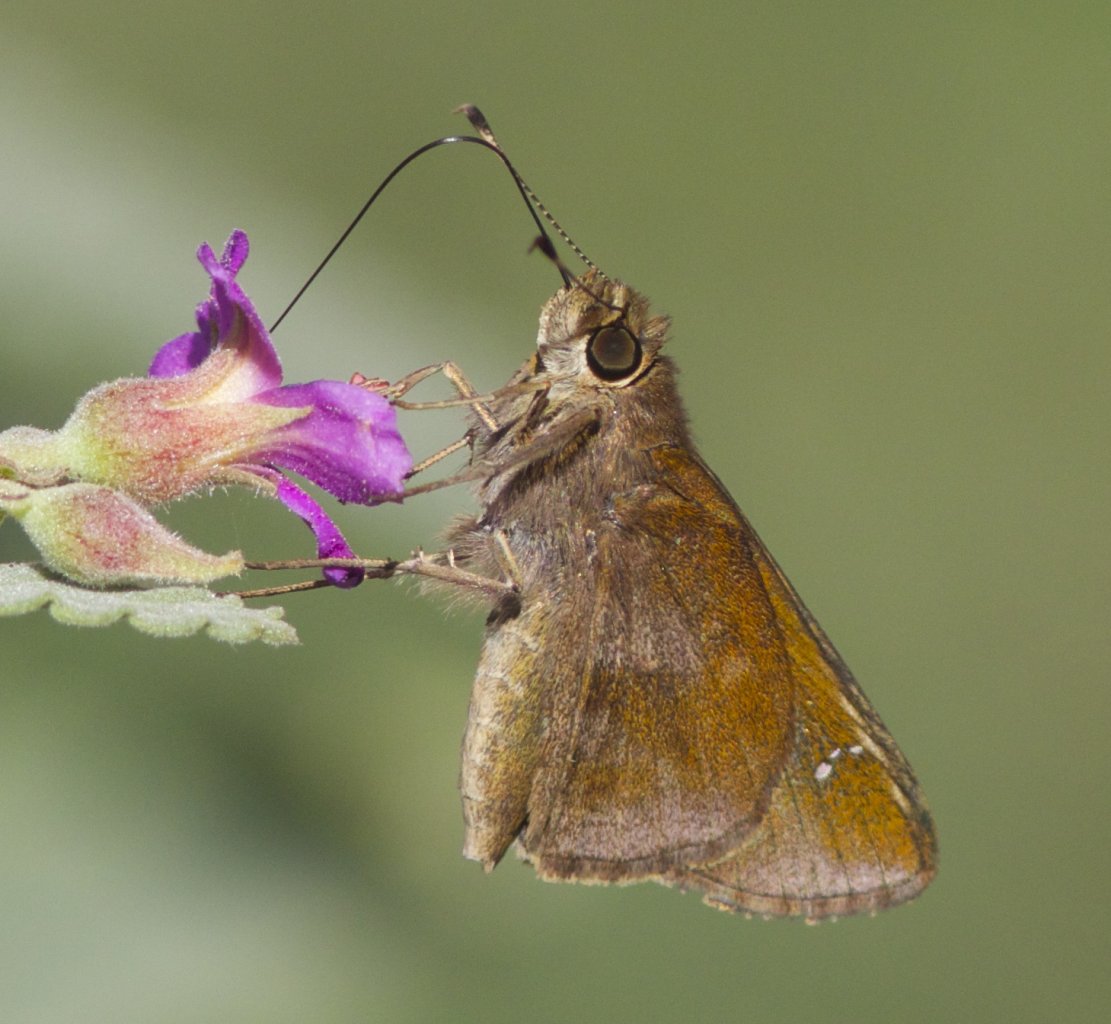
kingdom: Animalia
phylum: Arthropoda
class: Insecta
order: Lepidoptera
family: Hesperiidae
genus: Lerema
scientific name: Lerema accius
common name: Clouded Skipper
